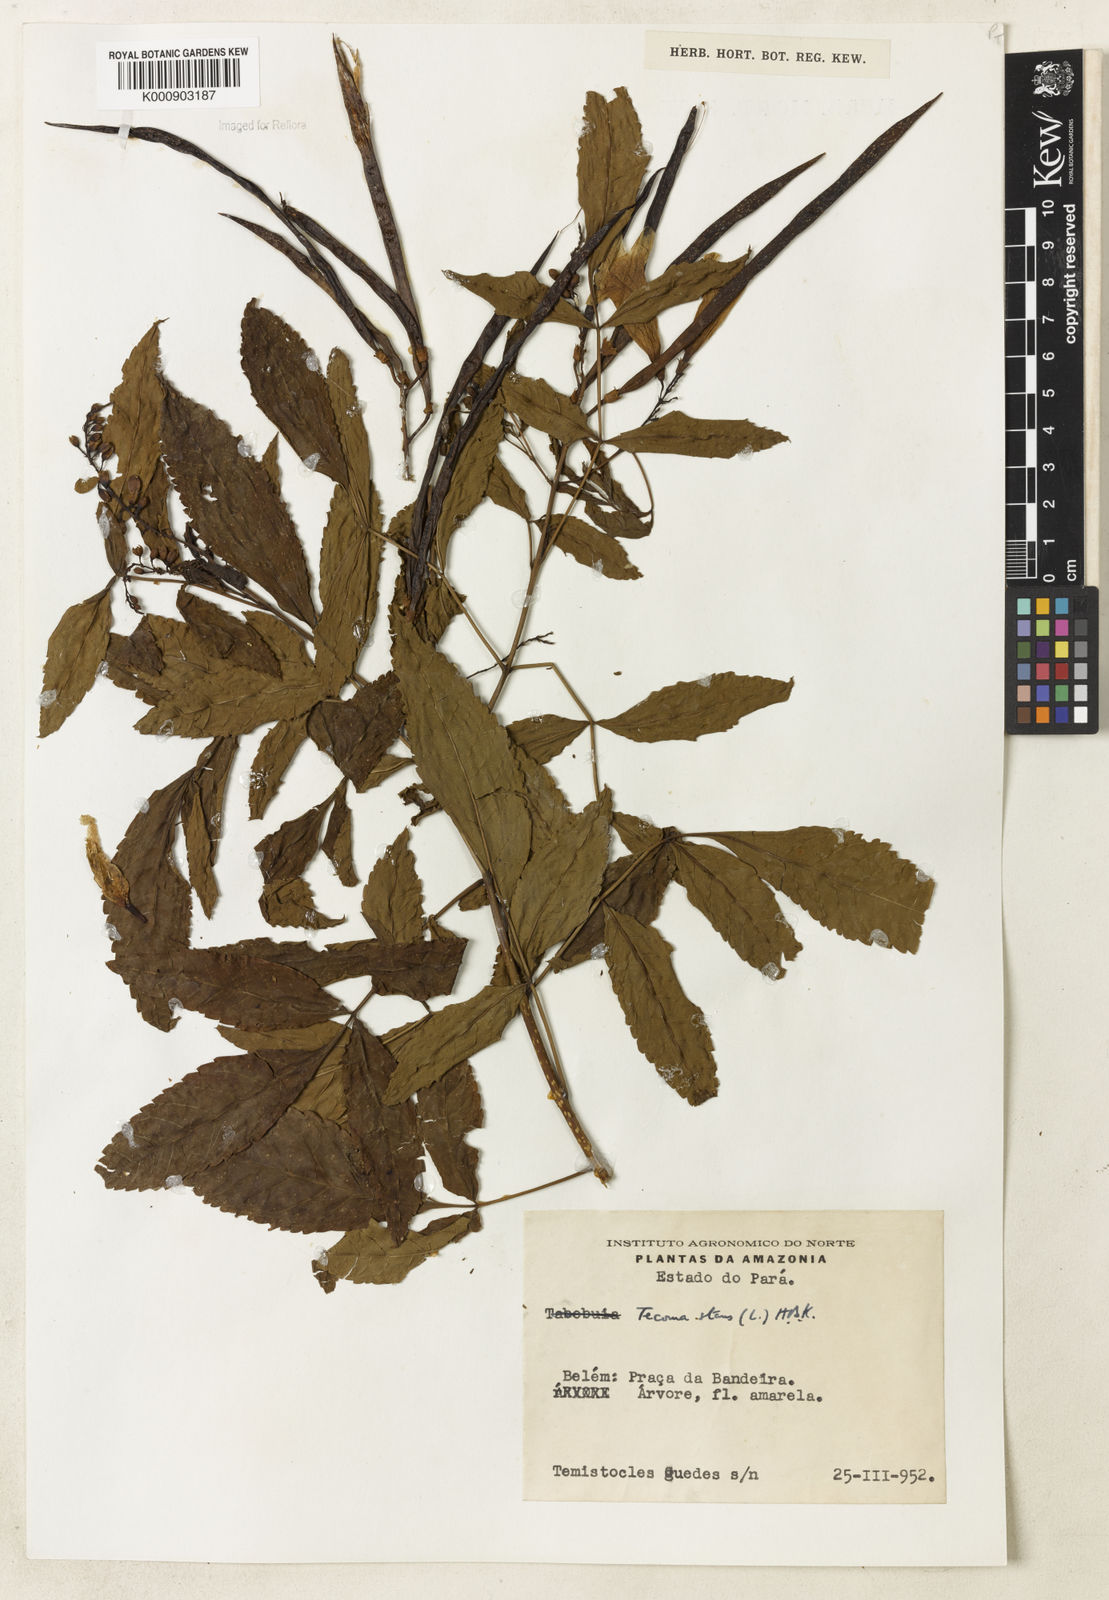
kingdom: Plantae
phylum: Tracheophyta
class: Magnoliopsida
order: Lamiales
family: Bignoniaceae
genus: Tecoma
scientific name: Tecoma stans
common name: Yellow trumpetbush
